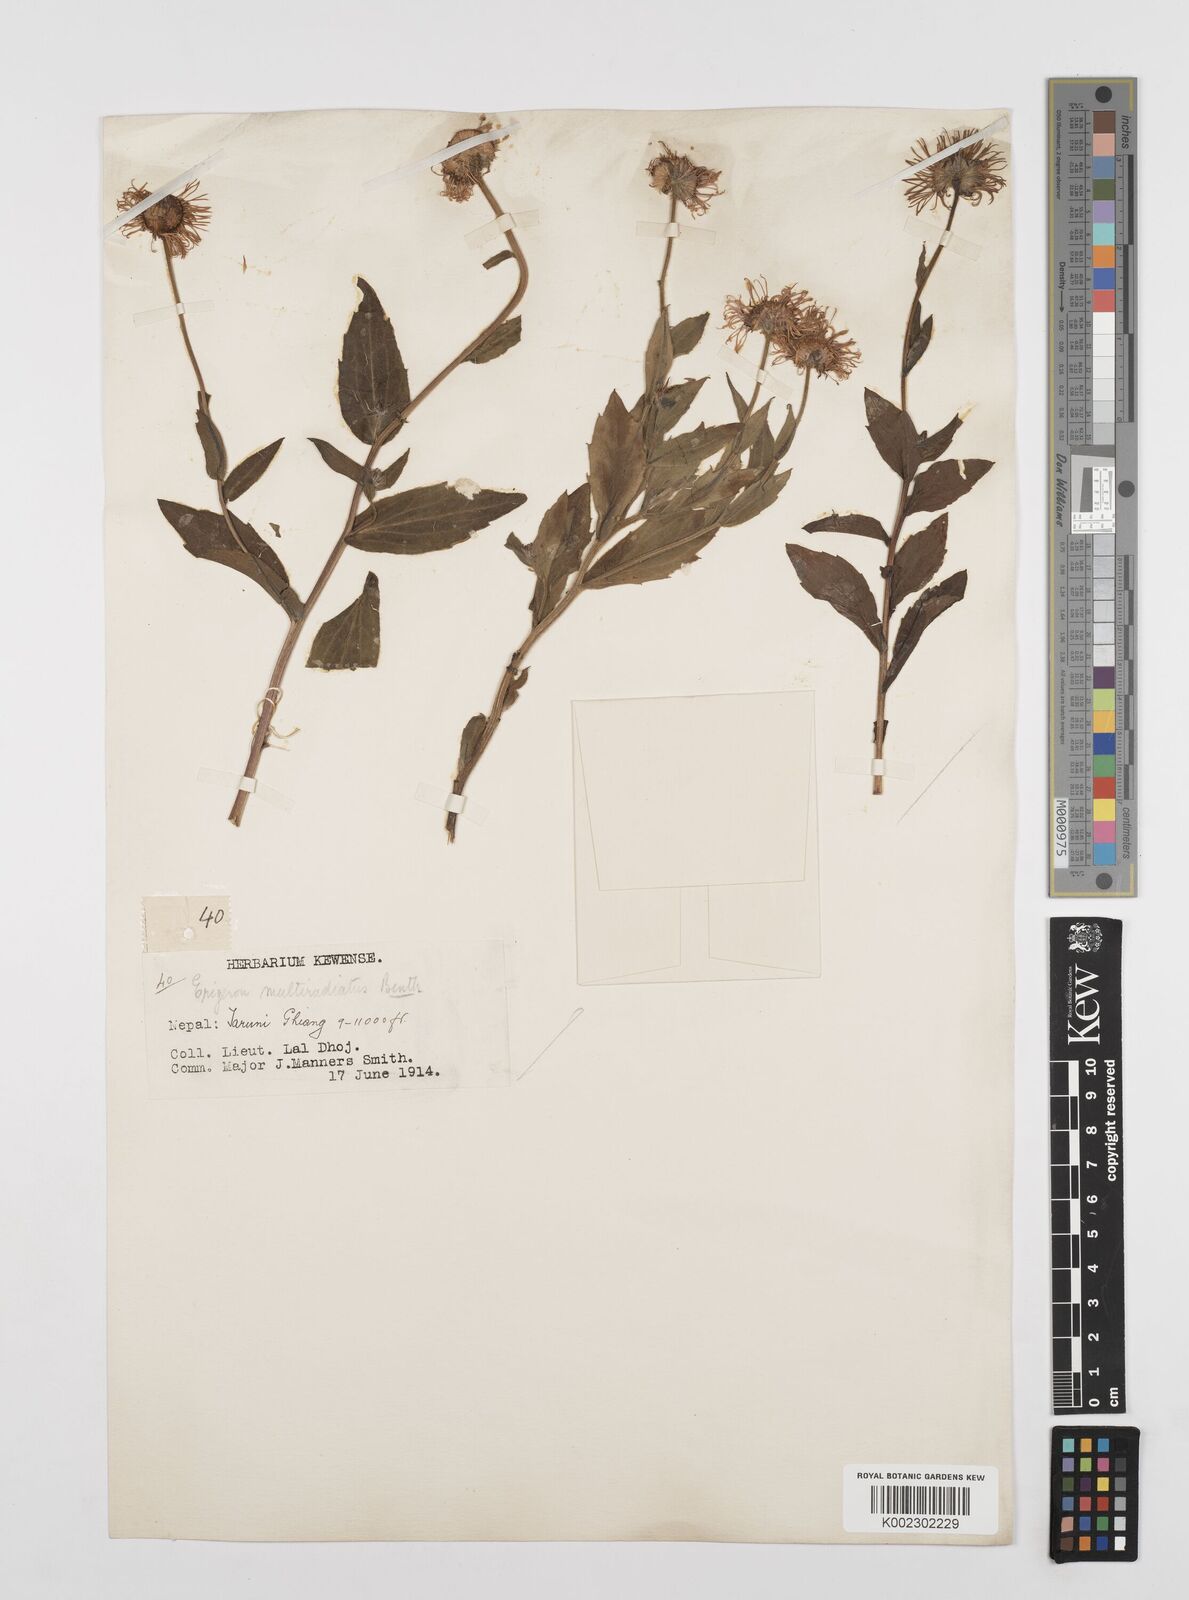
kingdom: Plantae
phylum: Tracheophyta
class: Magnoliopsida
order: Asterales
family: Asteraceae
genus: Erigeron
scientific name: Erigeron multiradiatus
